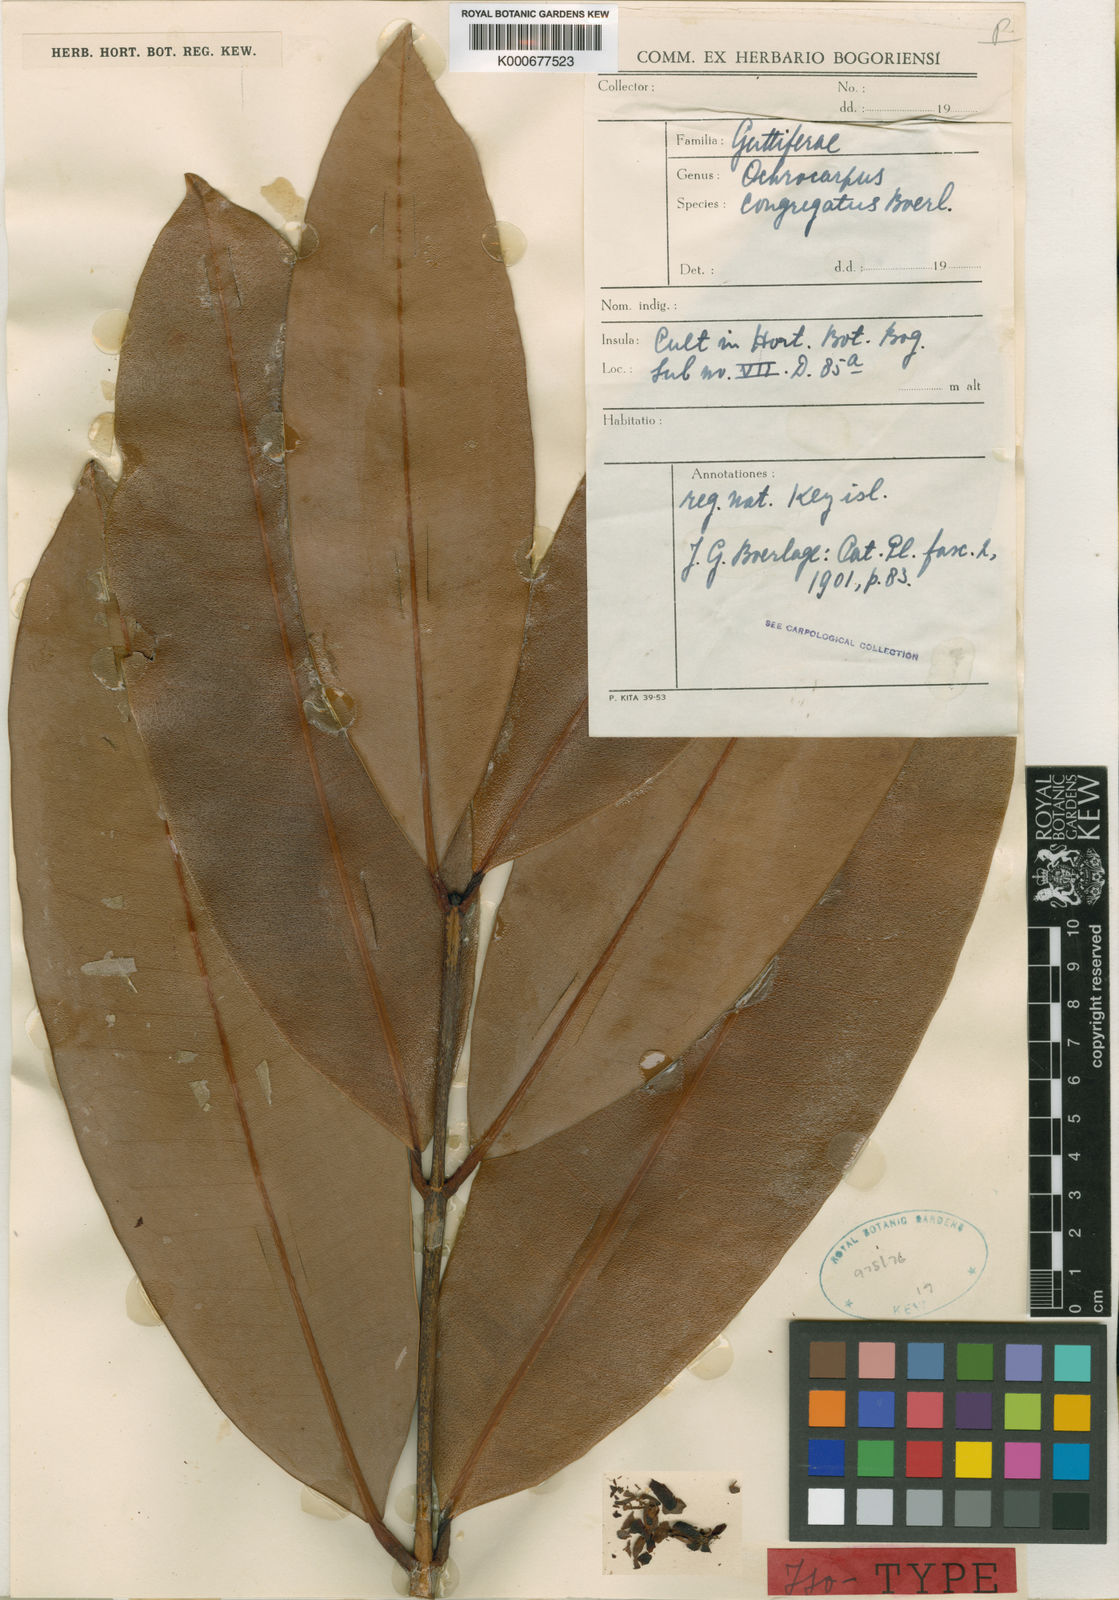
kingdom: Plantae
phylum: Tracheophyta
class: Magnoliopsida
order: Malpighiales
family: Calophyllaceae
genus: Mammea
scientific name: Mammea congregata
